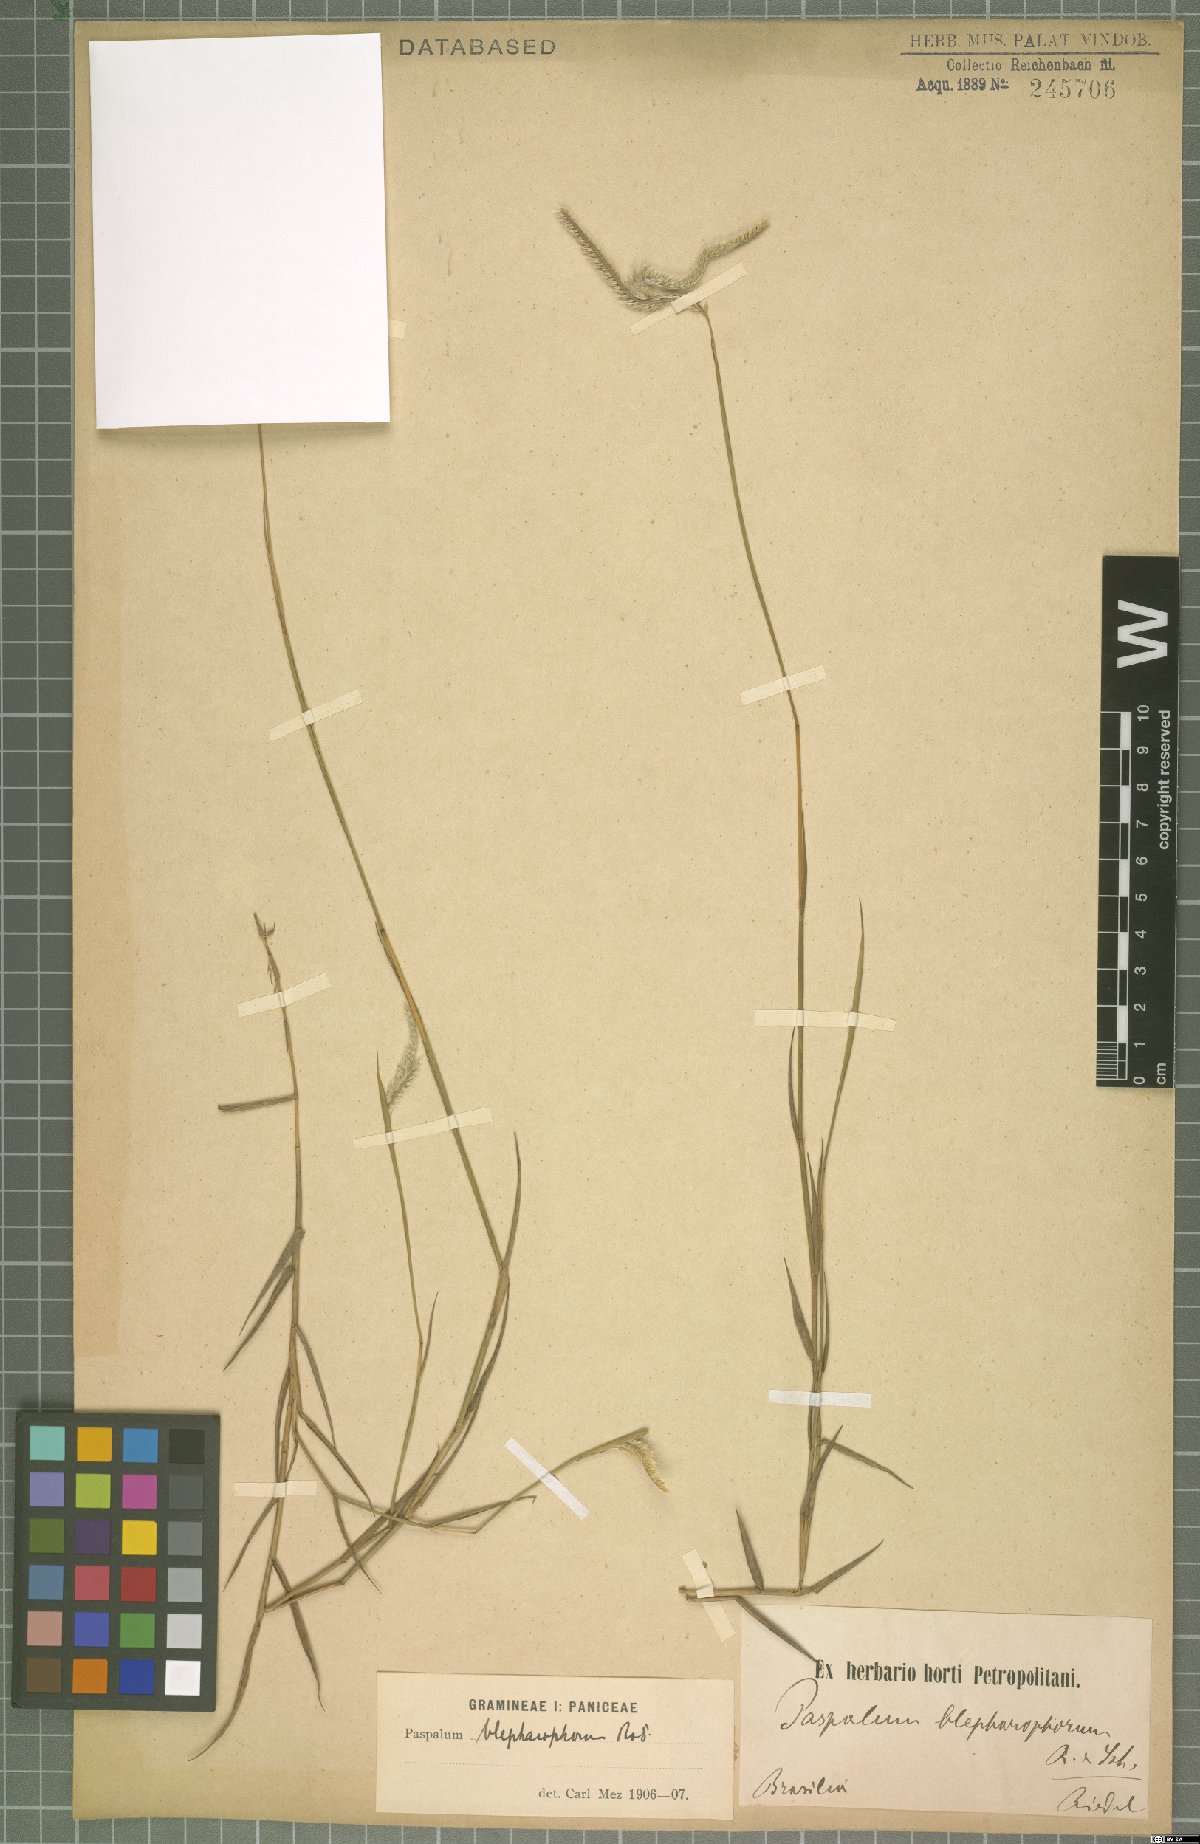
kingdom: Plantae
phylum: Tracheophyta
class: Liliopsida
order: Poales
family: Poaceae
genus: Paspalum
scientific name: Paspalum humboldtianum
